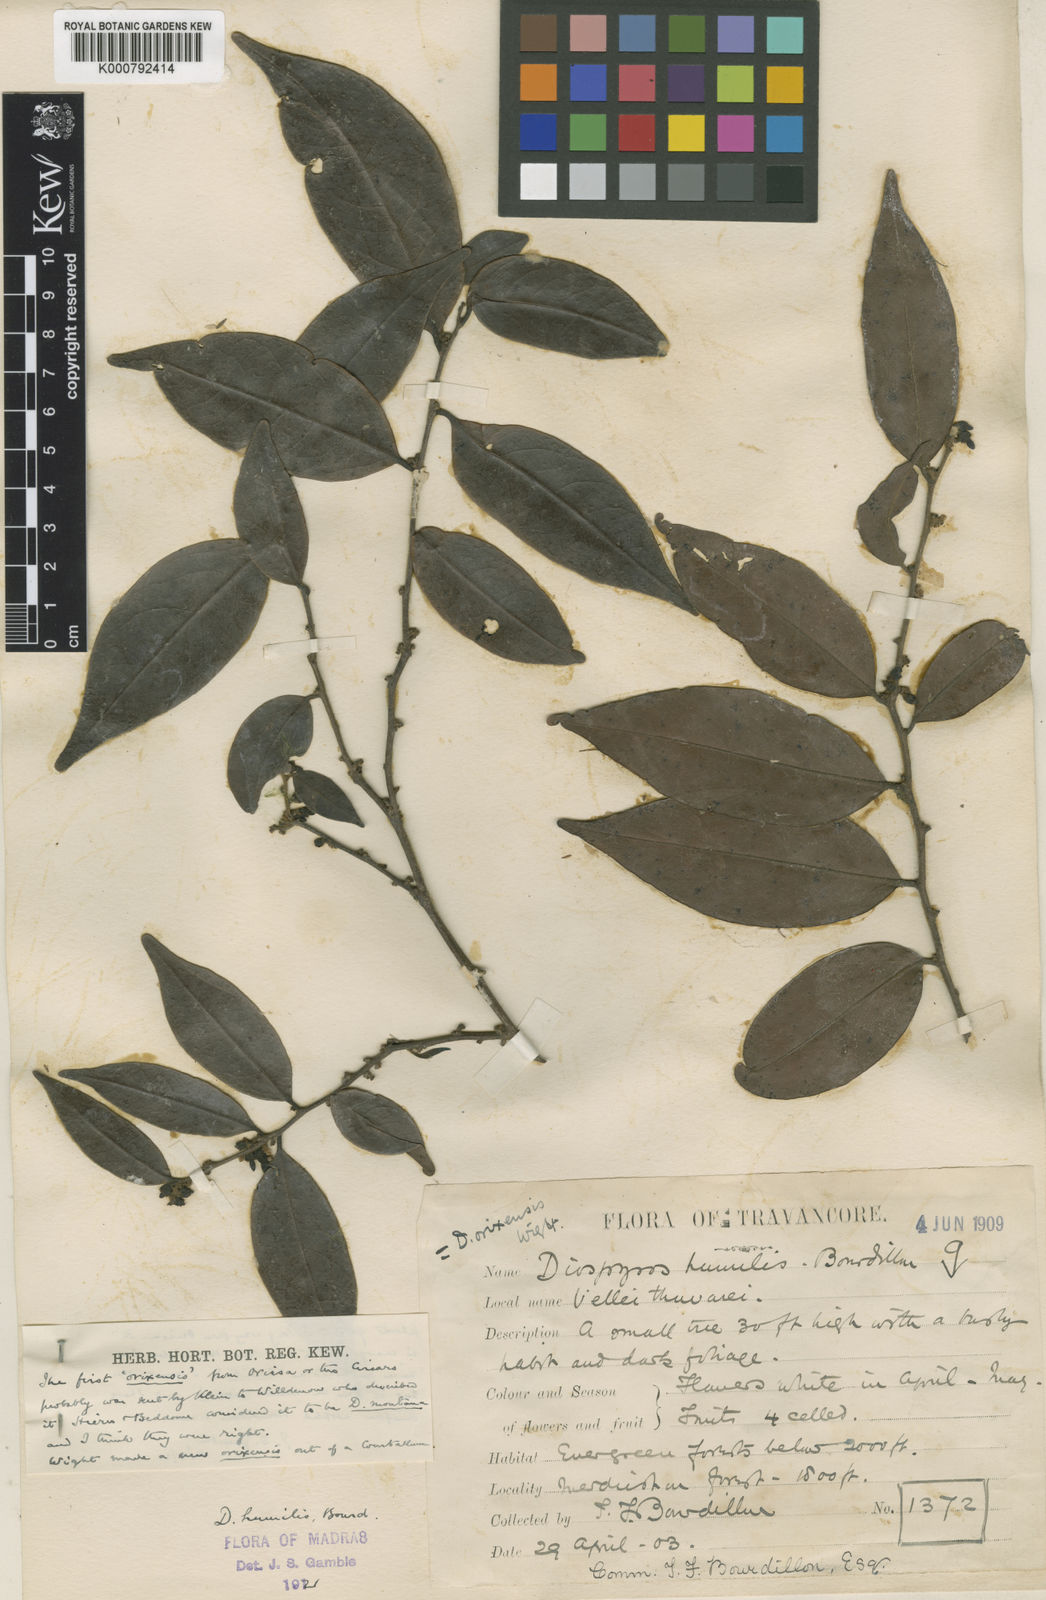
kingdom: Plantae
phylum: Tracheophyta
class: Magnoliopsida
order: Ericales
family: Ebenaceae
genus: Diospyros
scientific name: Diospyros montana
